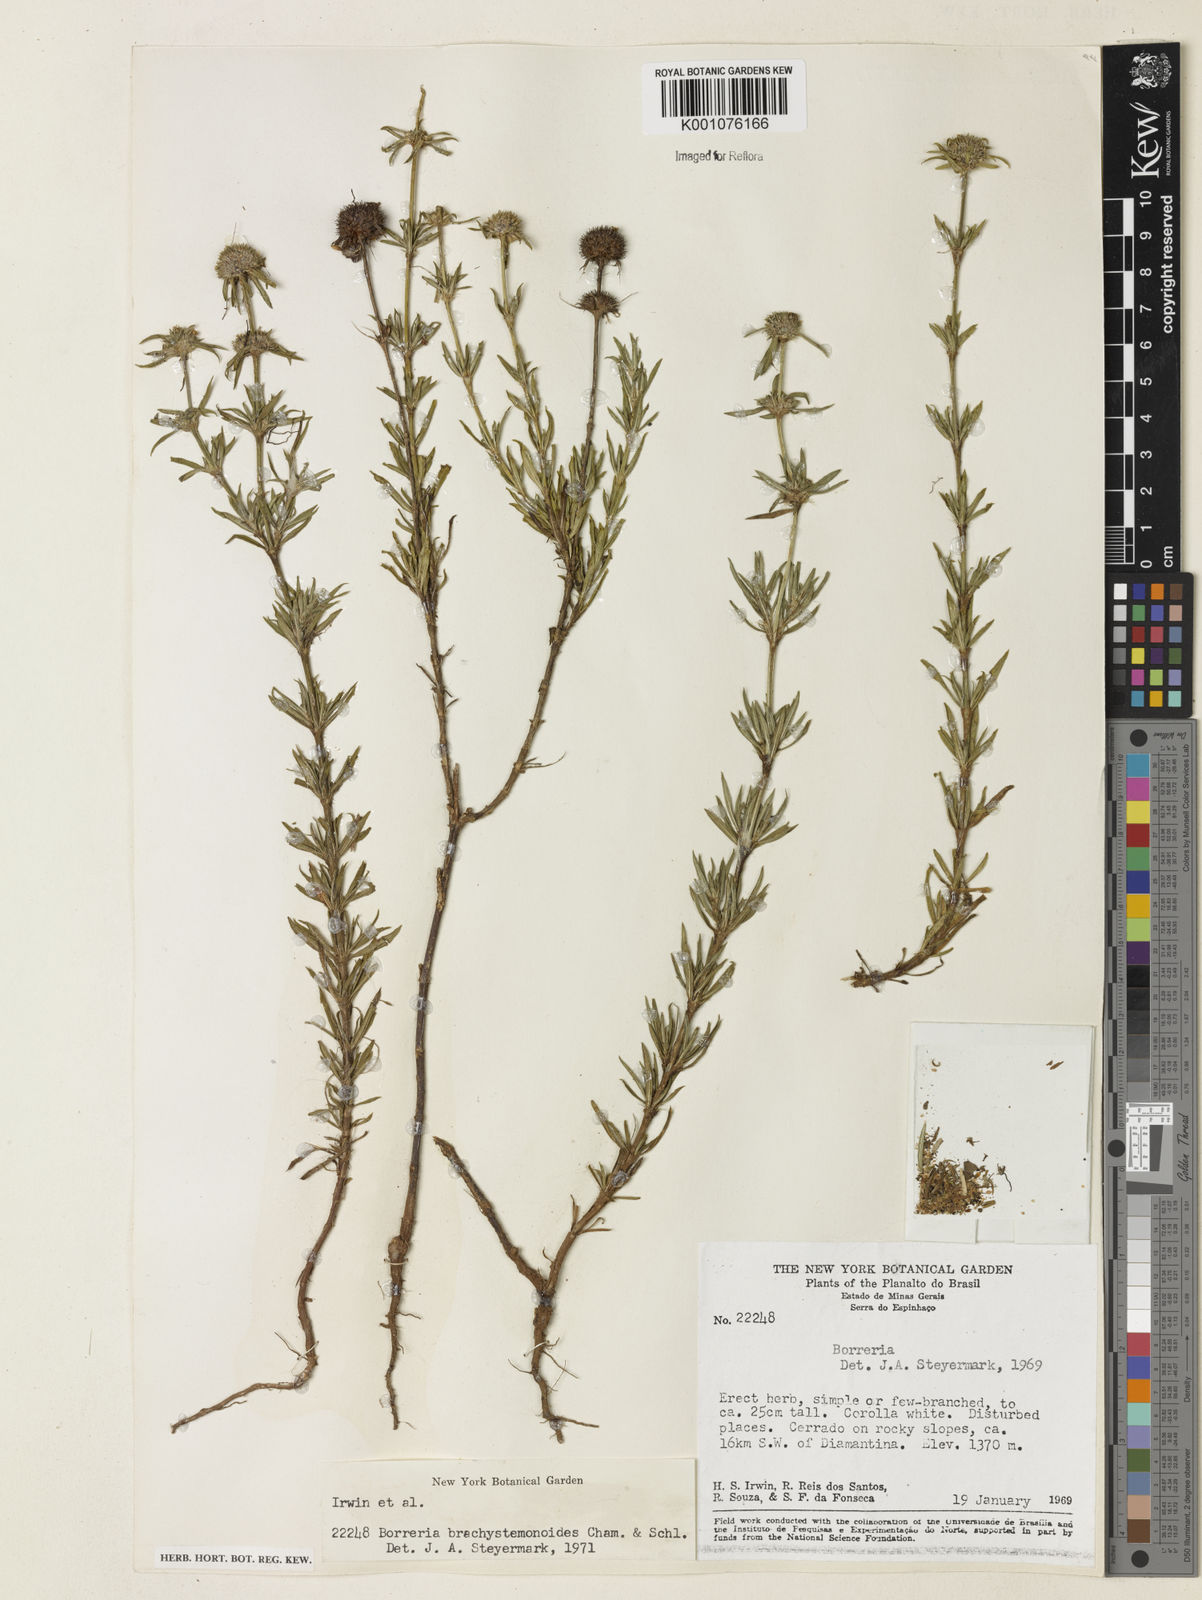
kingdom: Plantae
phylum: Tracheophyta
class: Magnoliopsida
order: Gentianales
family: Rubiaceae
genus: Spermacoce
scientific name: Spermacoce brachystemonoides
